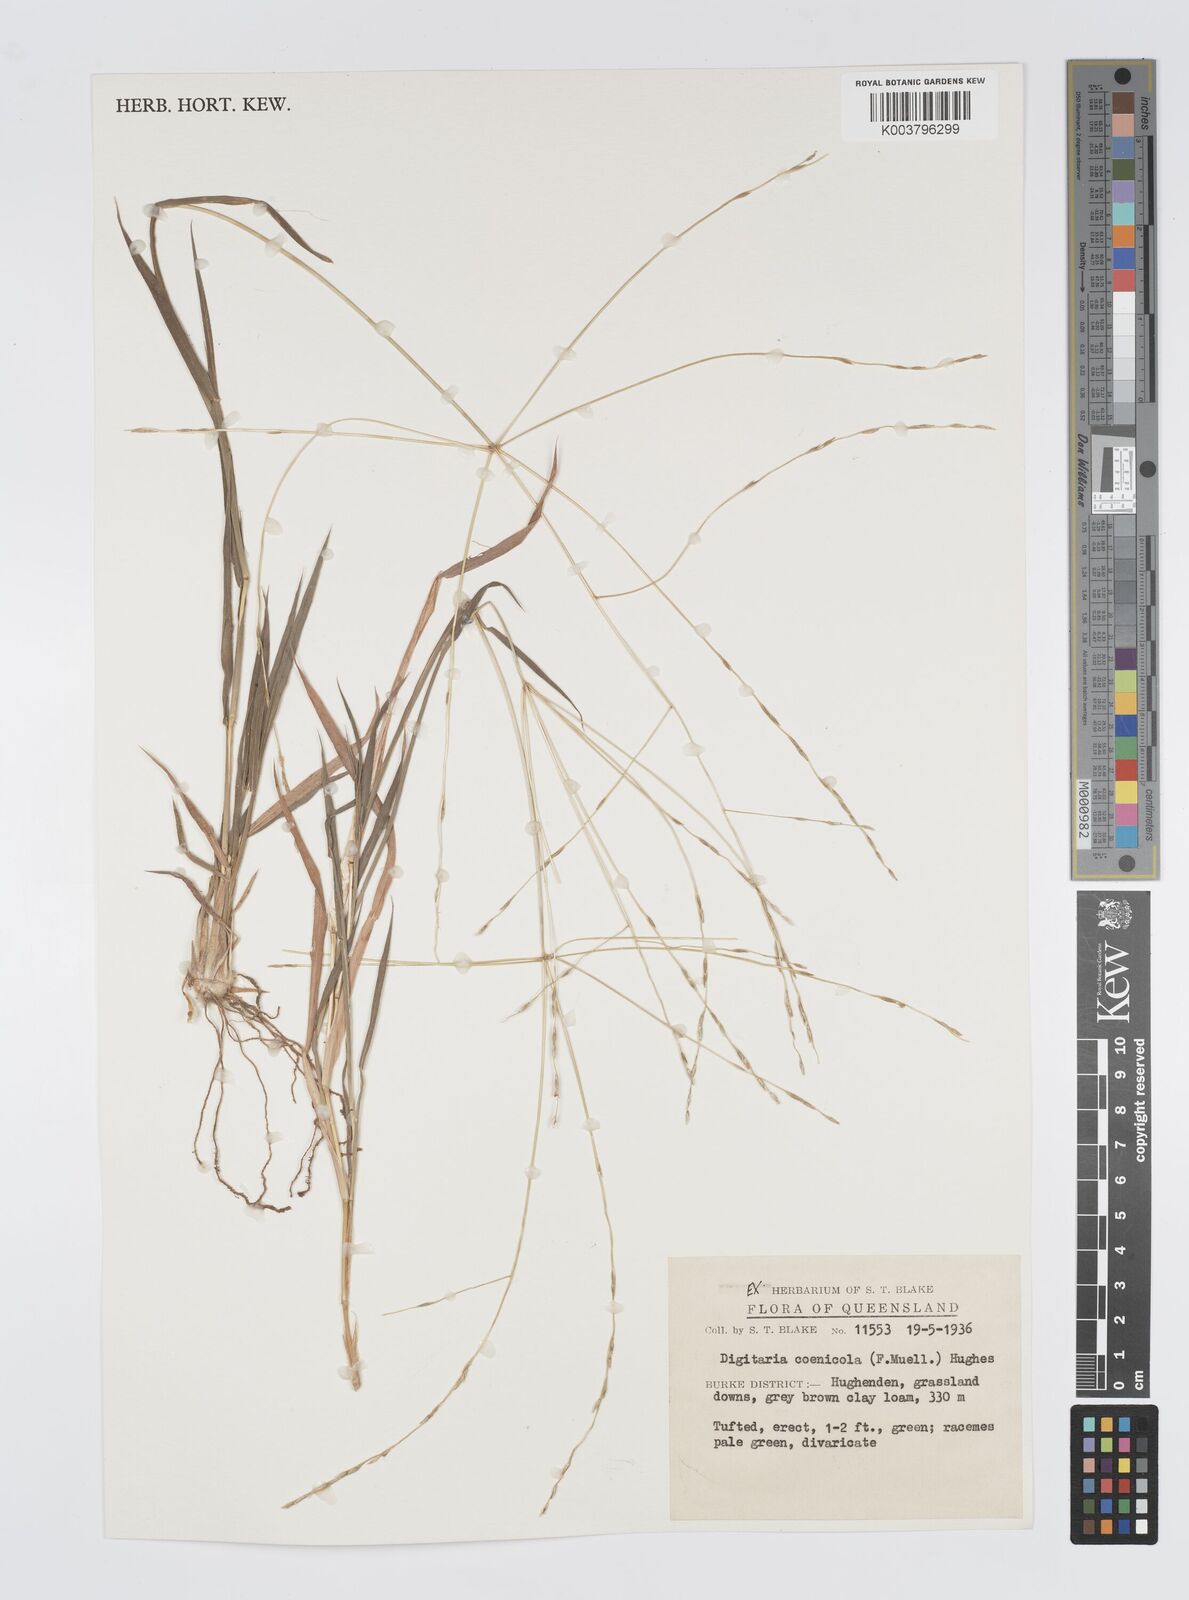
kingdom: Plantae
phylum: Tracheophyta
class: Liliopsida
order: Poales
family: Poaceae
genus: Digitaria
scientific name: Digitaria coenicola
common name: Kanta grass
